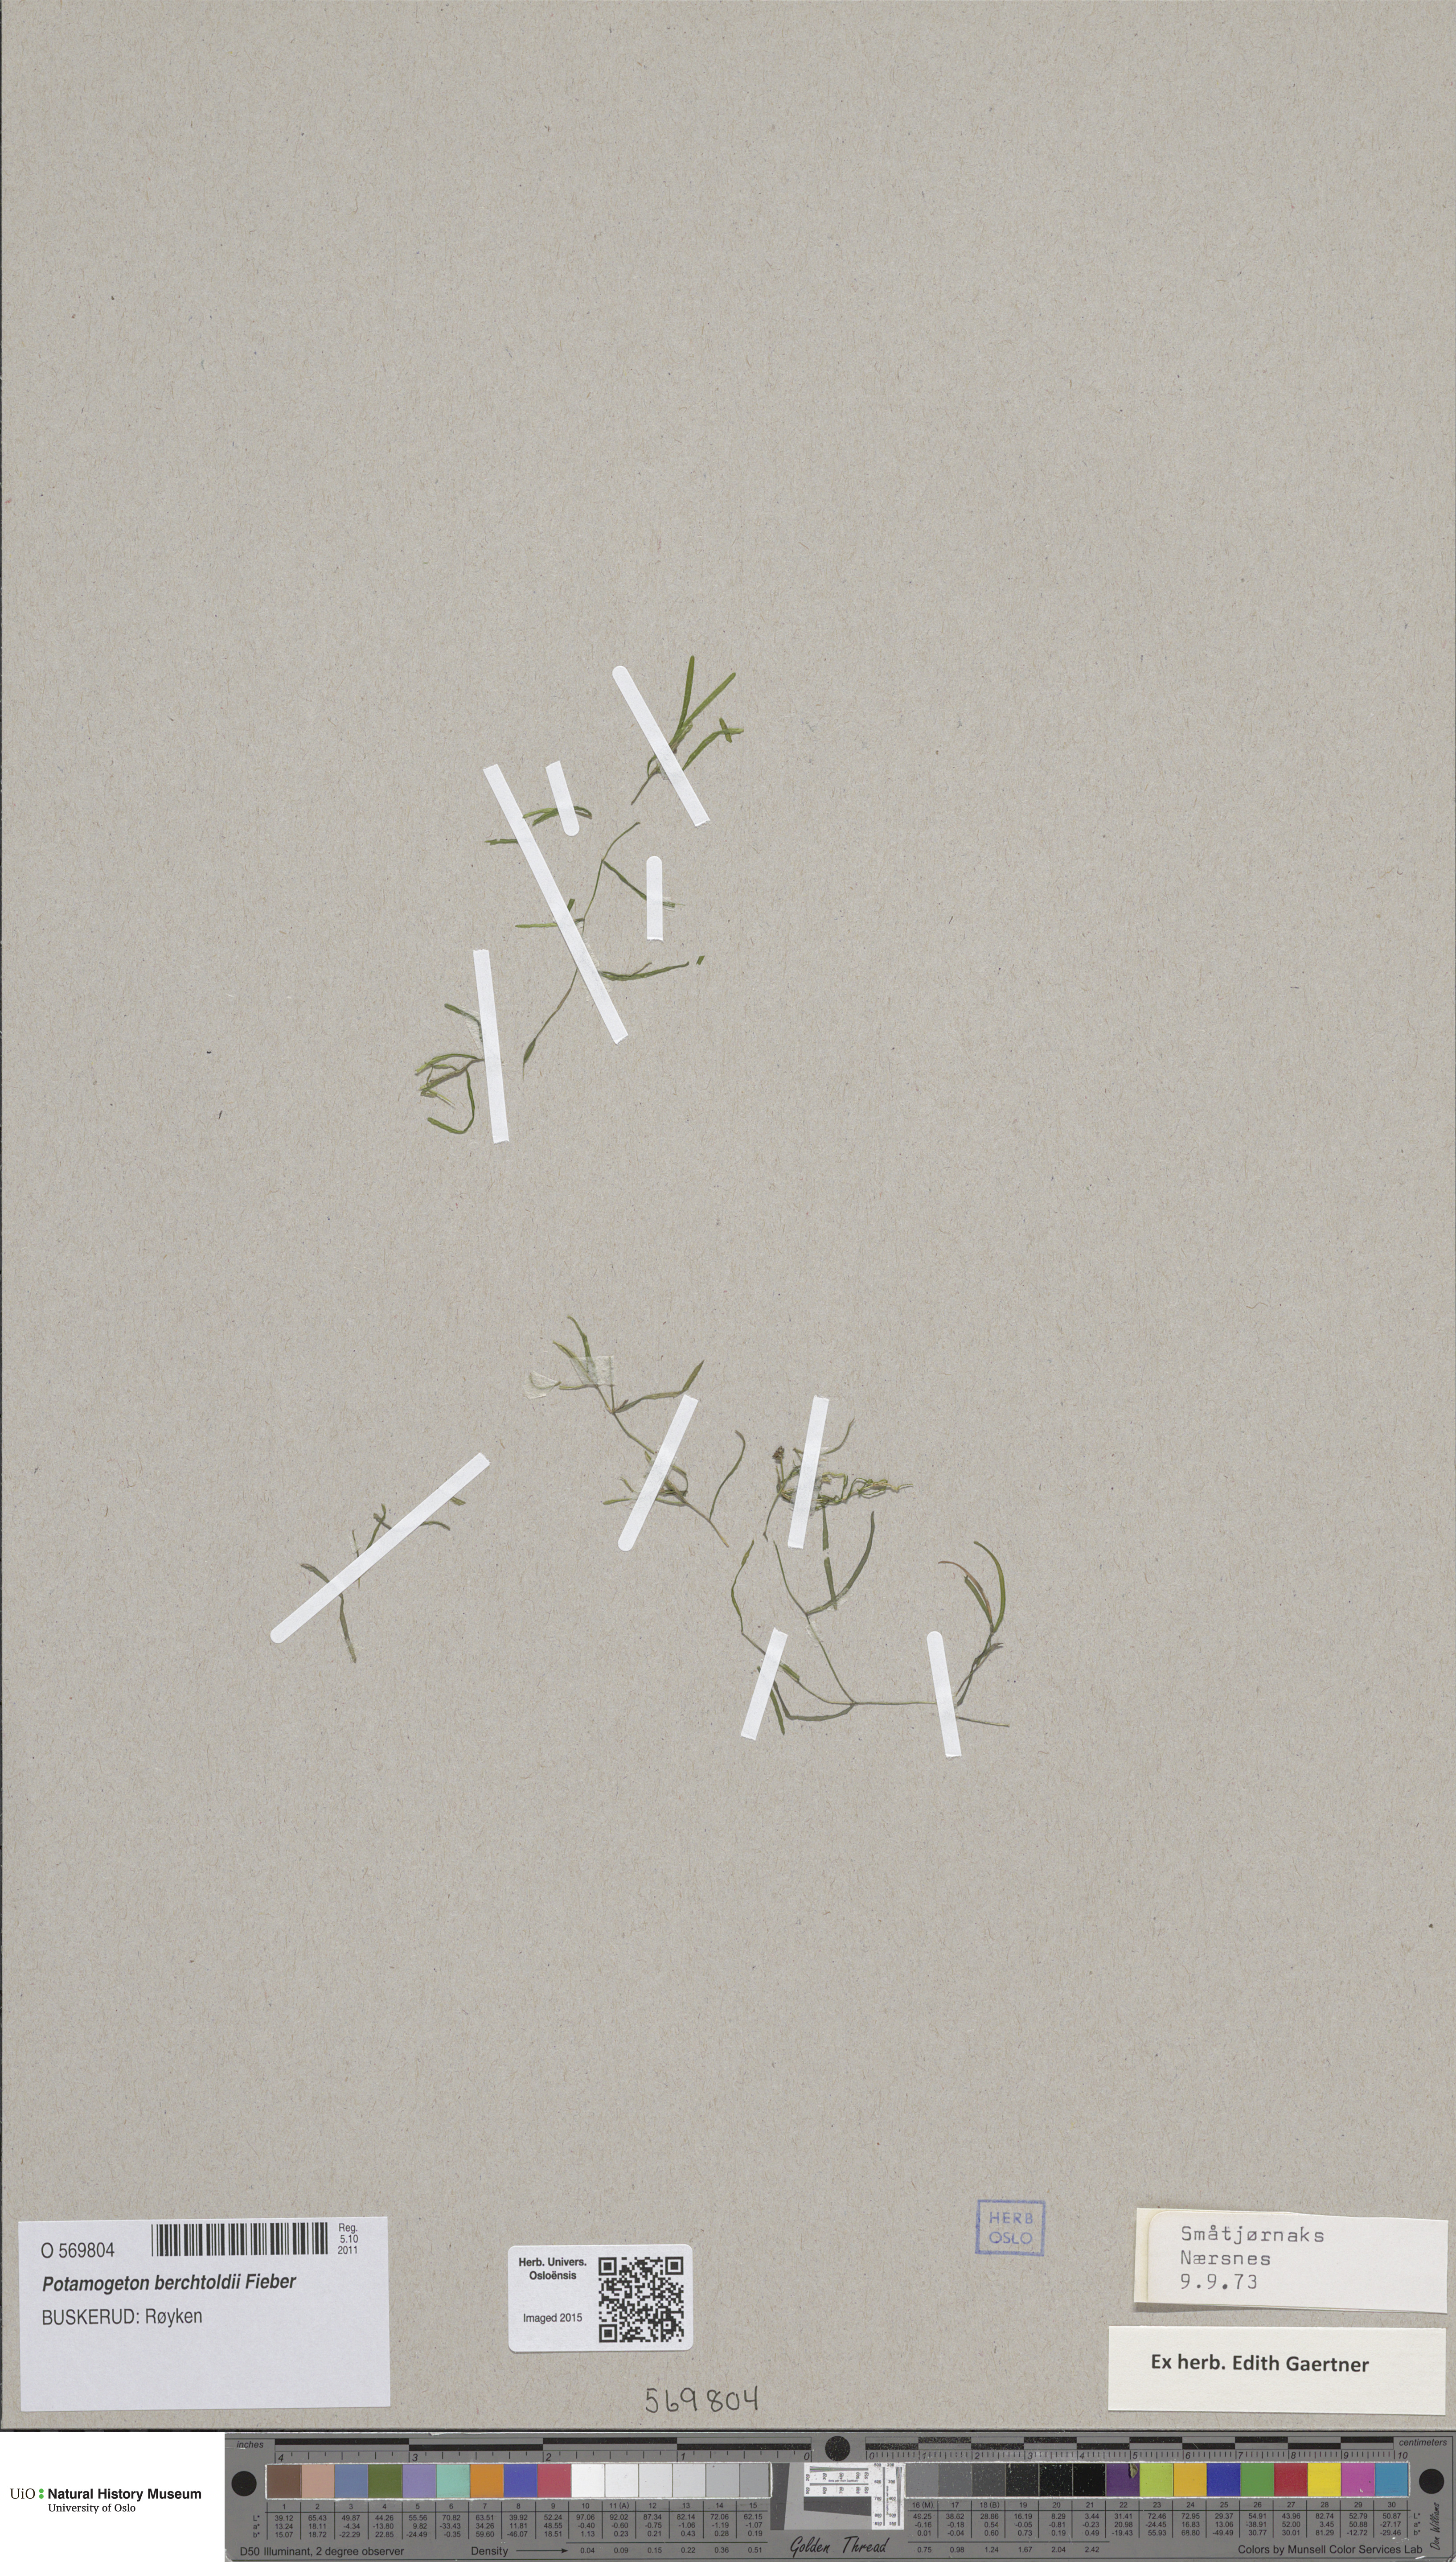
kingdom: Plantae
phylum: Tracheophyta
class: Liliopsida
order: Alismatales
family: Potamogetonaceae
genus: Potamogeton
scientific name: Potamogeton berchtoldii
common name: Small pondweed
